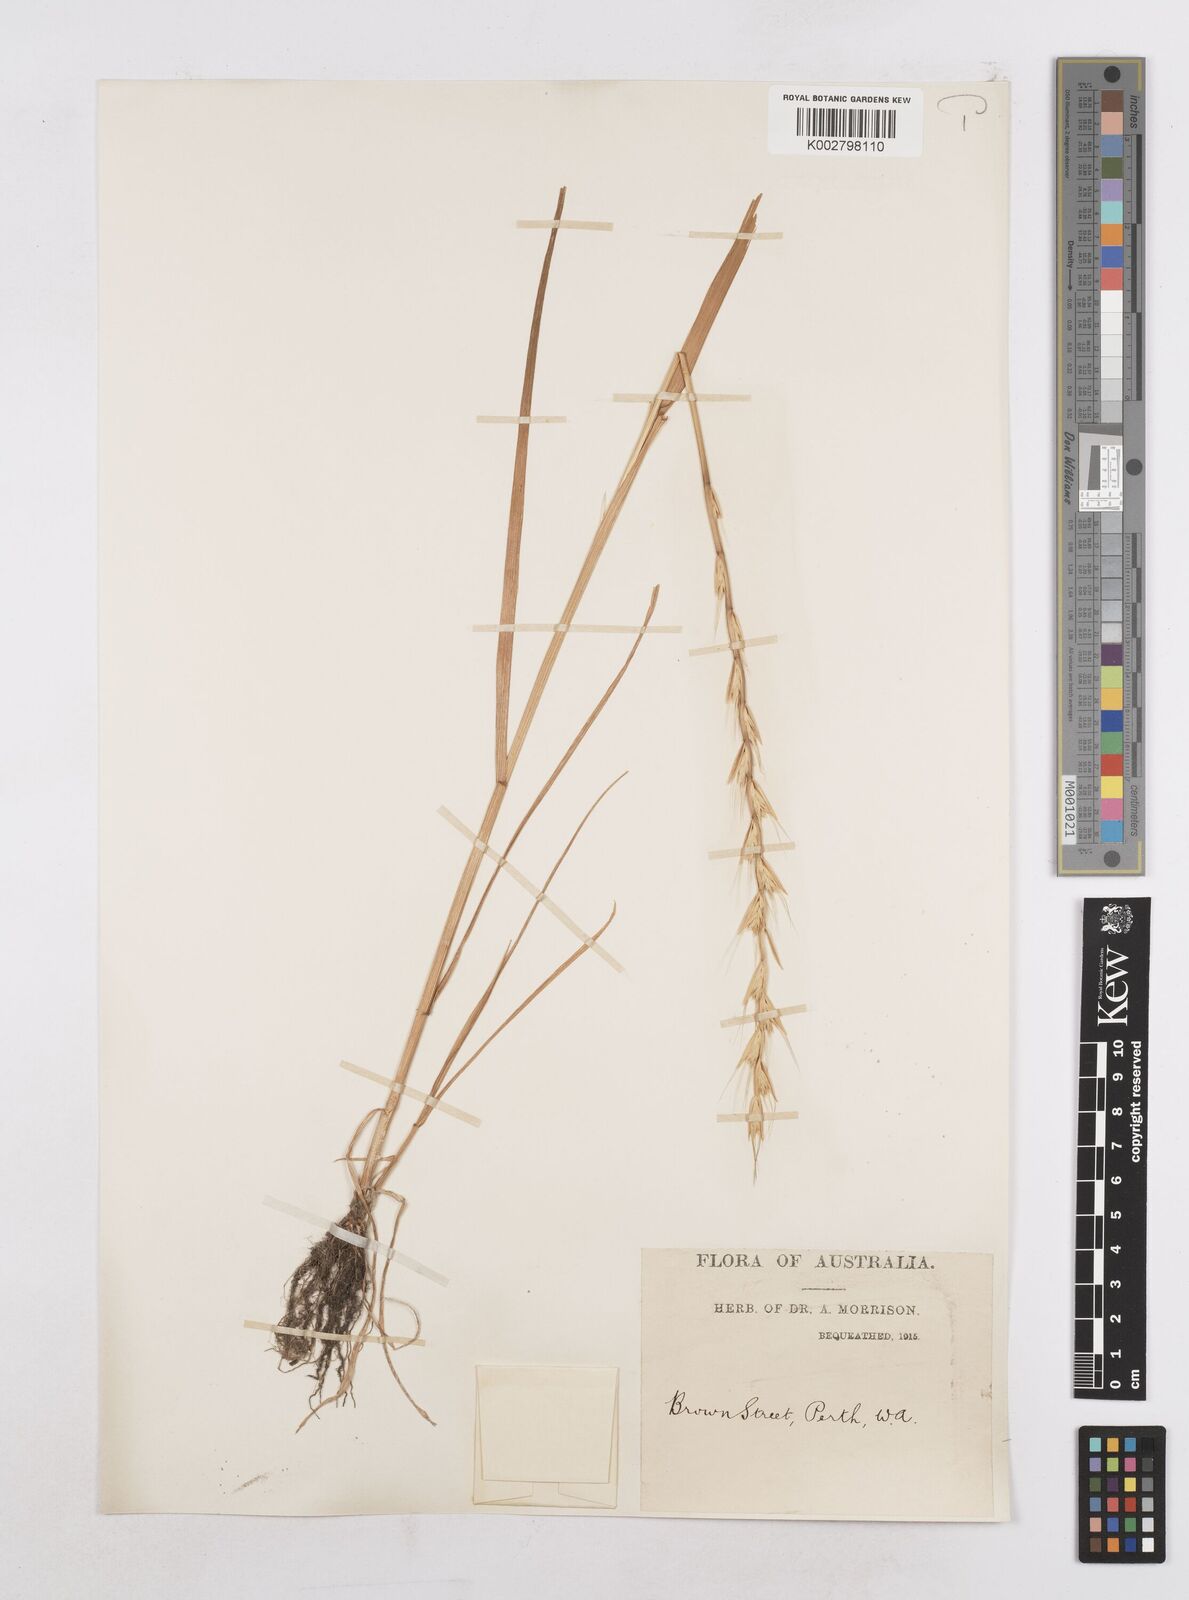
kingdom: Plantae
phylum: Tracheophyta
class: Liliopsida
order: Poales
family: Poaceae
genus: Lolium
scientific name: Lolium temulentum
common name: Darnel
